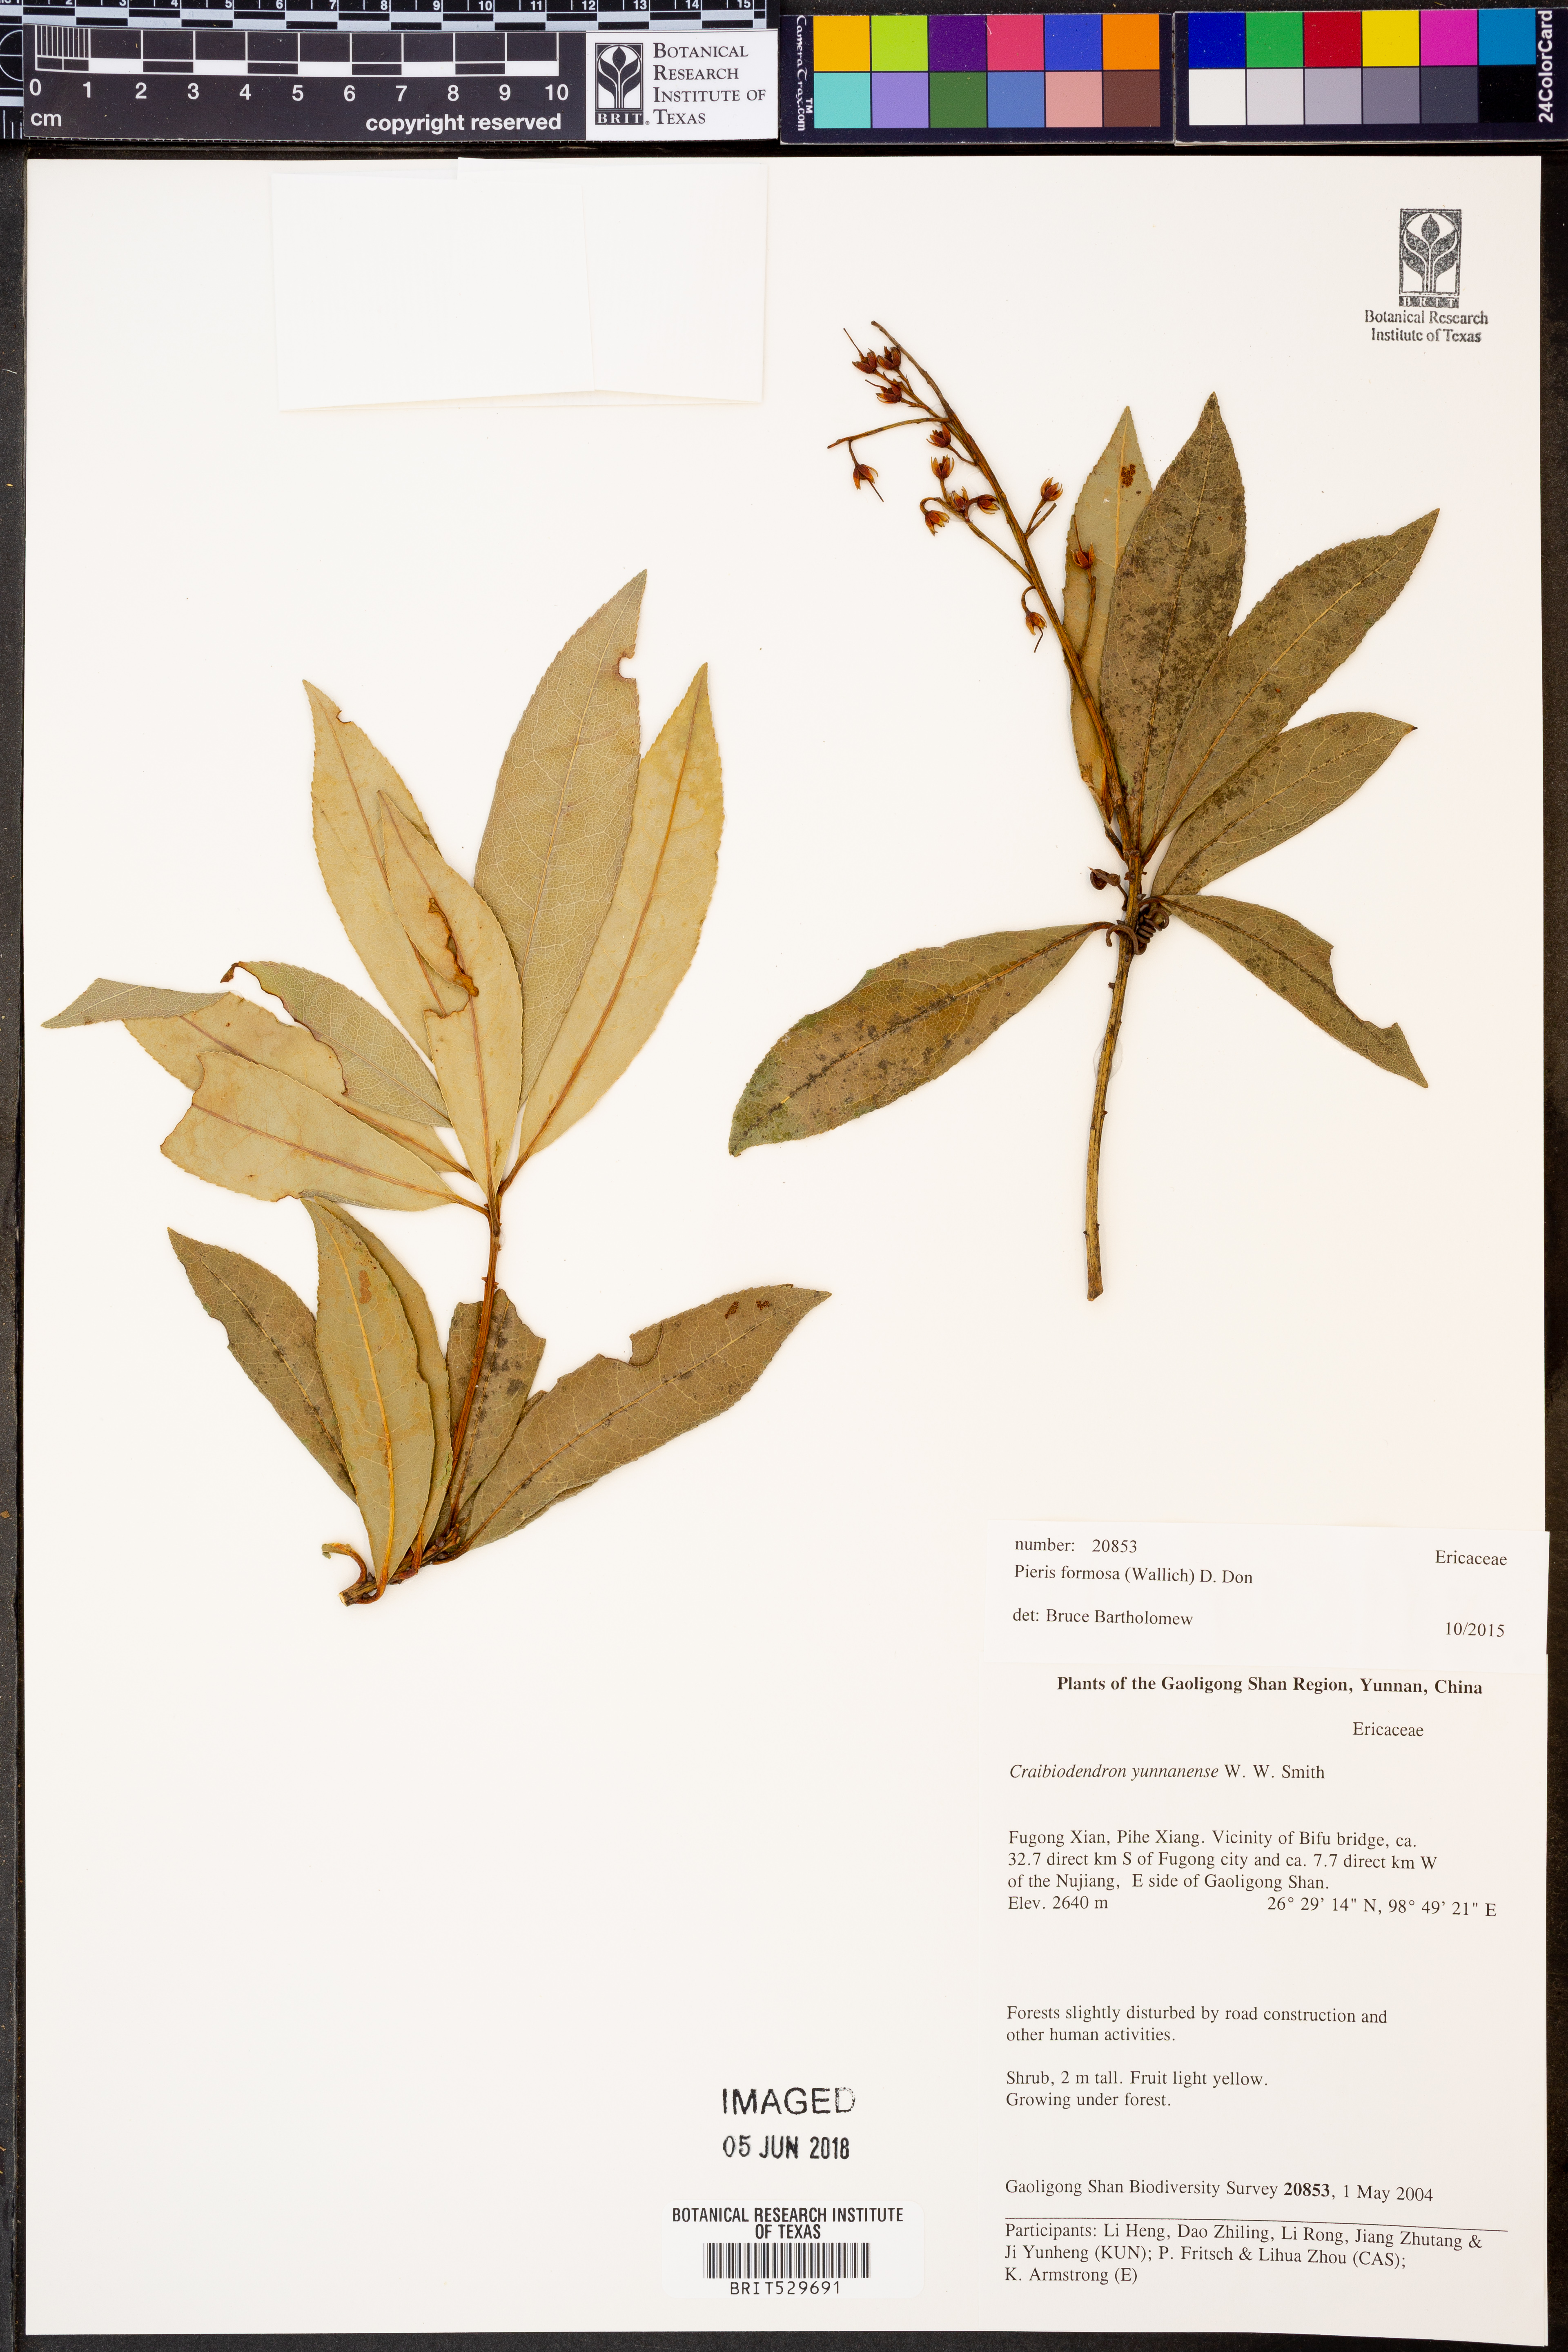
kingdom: Plantae
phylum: Tracheophyta
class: Magnoliopsida
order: Ericales
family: Ericaceae
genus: Pieris
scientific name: Pieris formosa
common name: Formosan pieris
